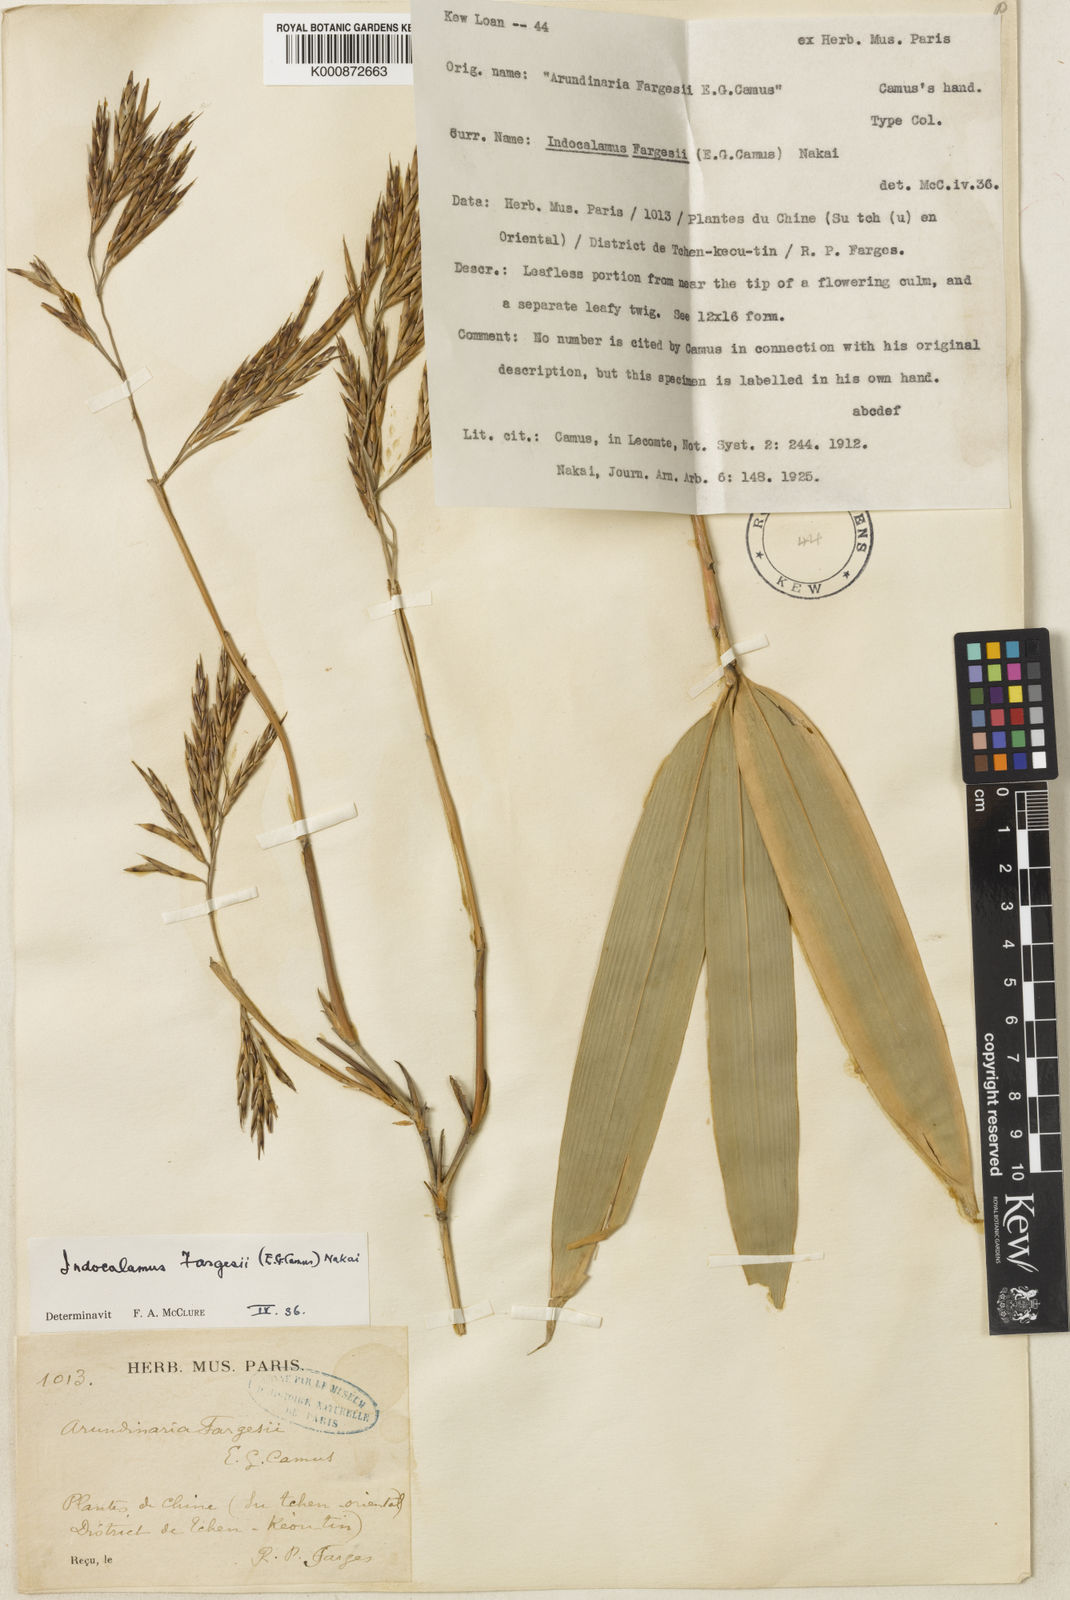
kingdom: Plantae
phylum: Tracheophyta
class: Liliopsida
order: Poales
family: Poaceae
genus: Bashania
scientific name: Bashania fargesii
